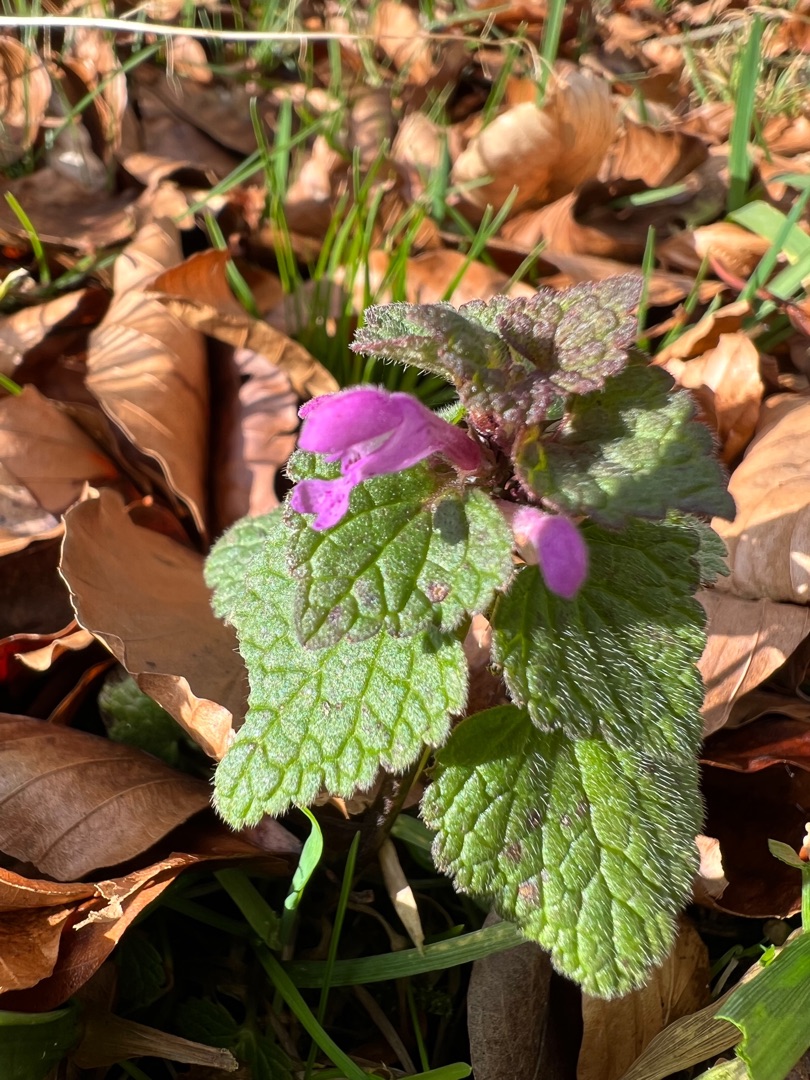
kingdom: Plantae
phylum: Tracheophyta
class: Magnoliopsida
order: Lamiales
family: Lamiaceae
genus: Lamium
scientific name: Lamium purpureum
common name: Rød tvetand
